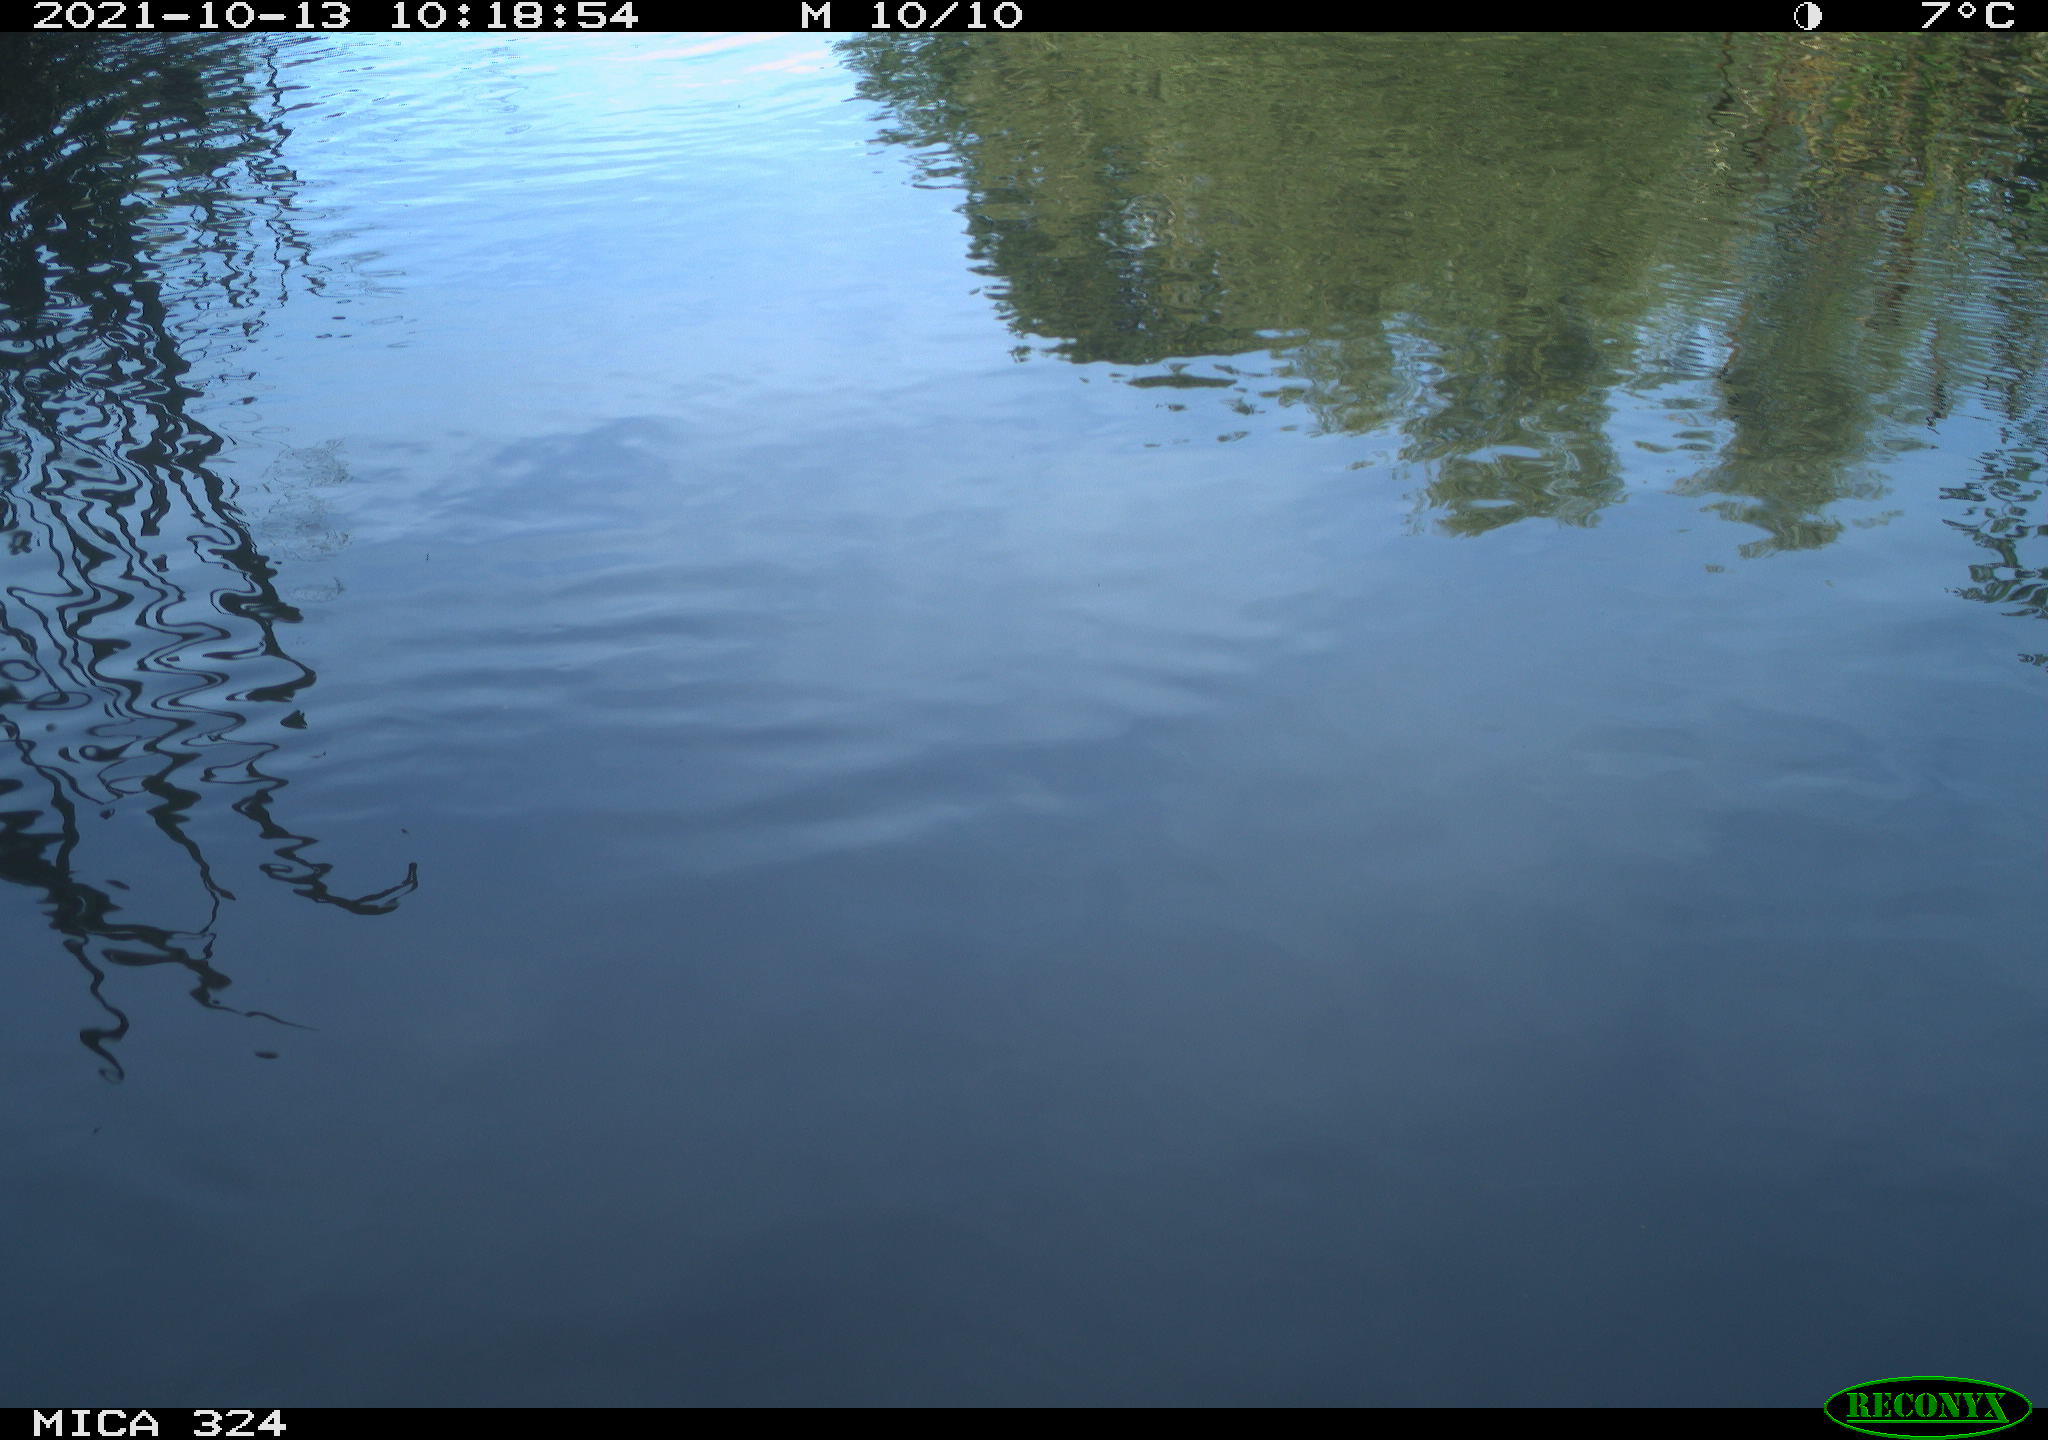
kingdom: Animalia
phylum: Chordata
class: Aves
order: Gruiformes
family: Rallidae
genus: Gallinula
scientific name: Gallinula chloropus
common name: Common moorhen
